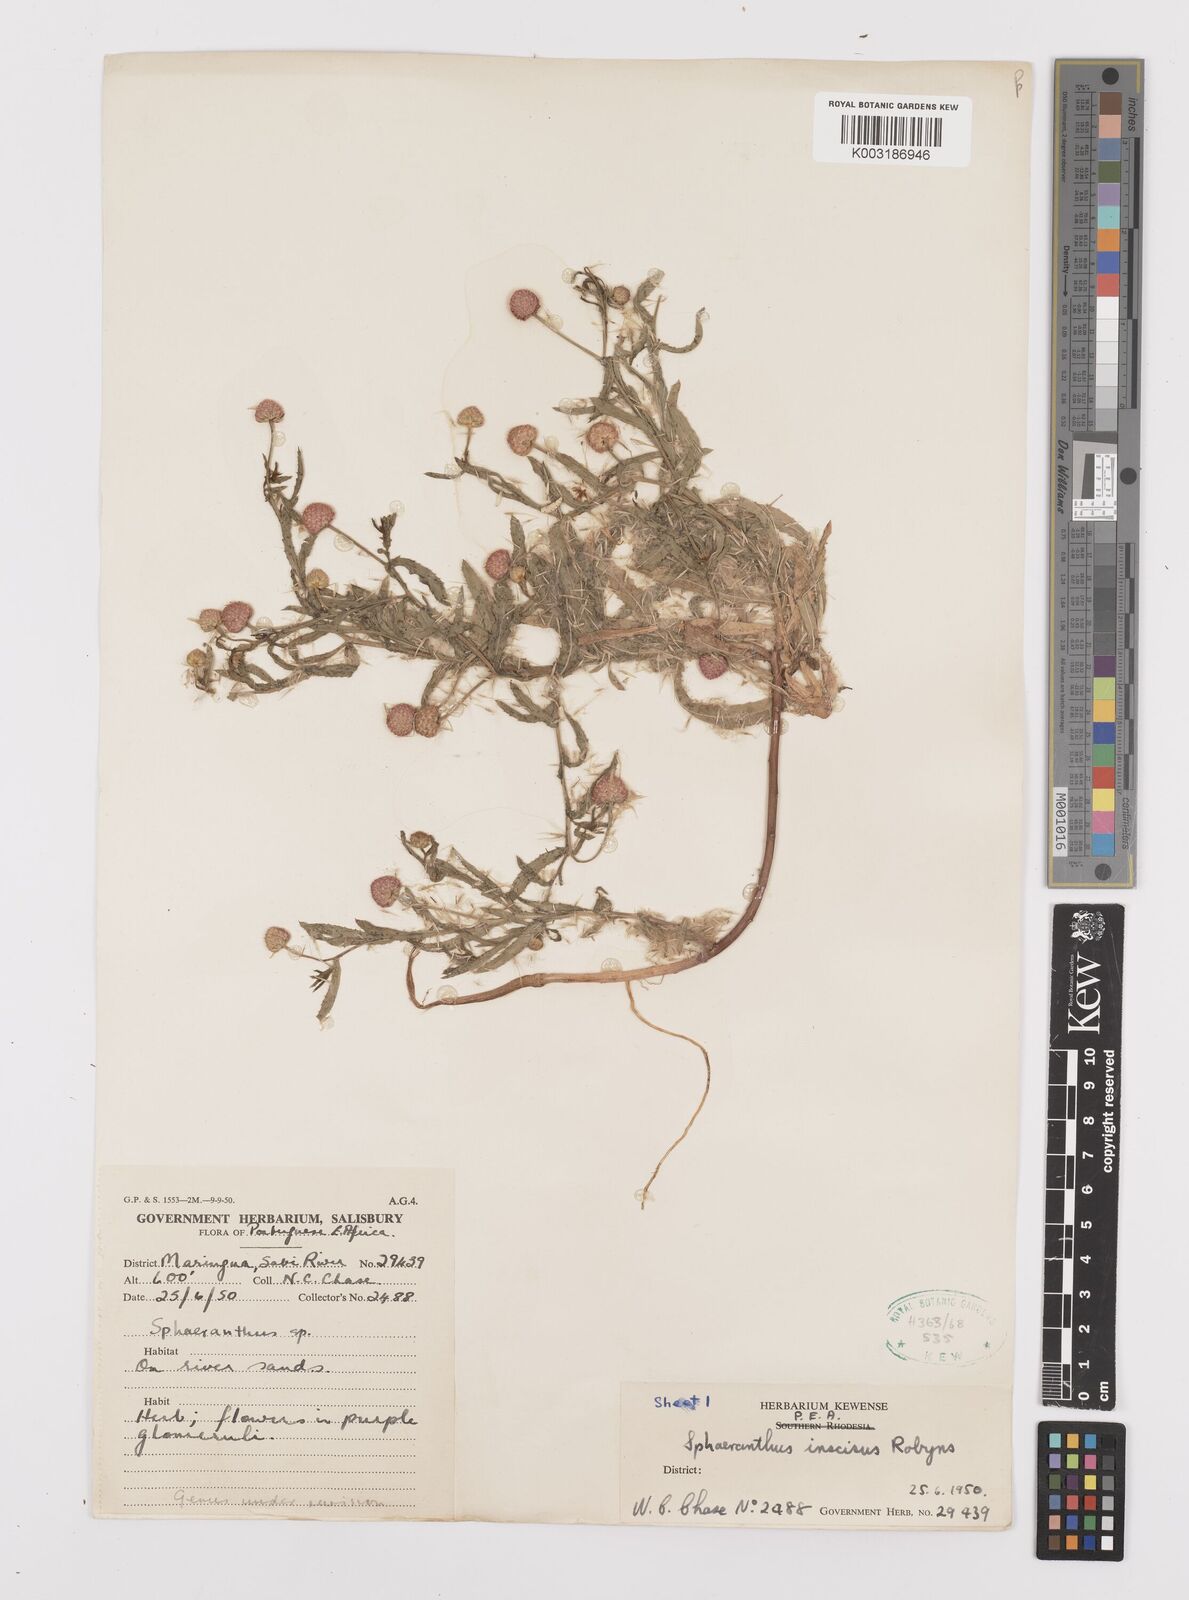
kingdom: Plantae
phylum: Tracheophyta
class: Magnoliopsida
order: Asterales
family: Asteraceae
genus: Sphaeranthus
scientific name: Sphaeranthus peduncularis
